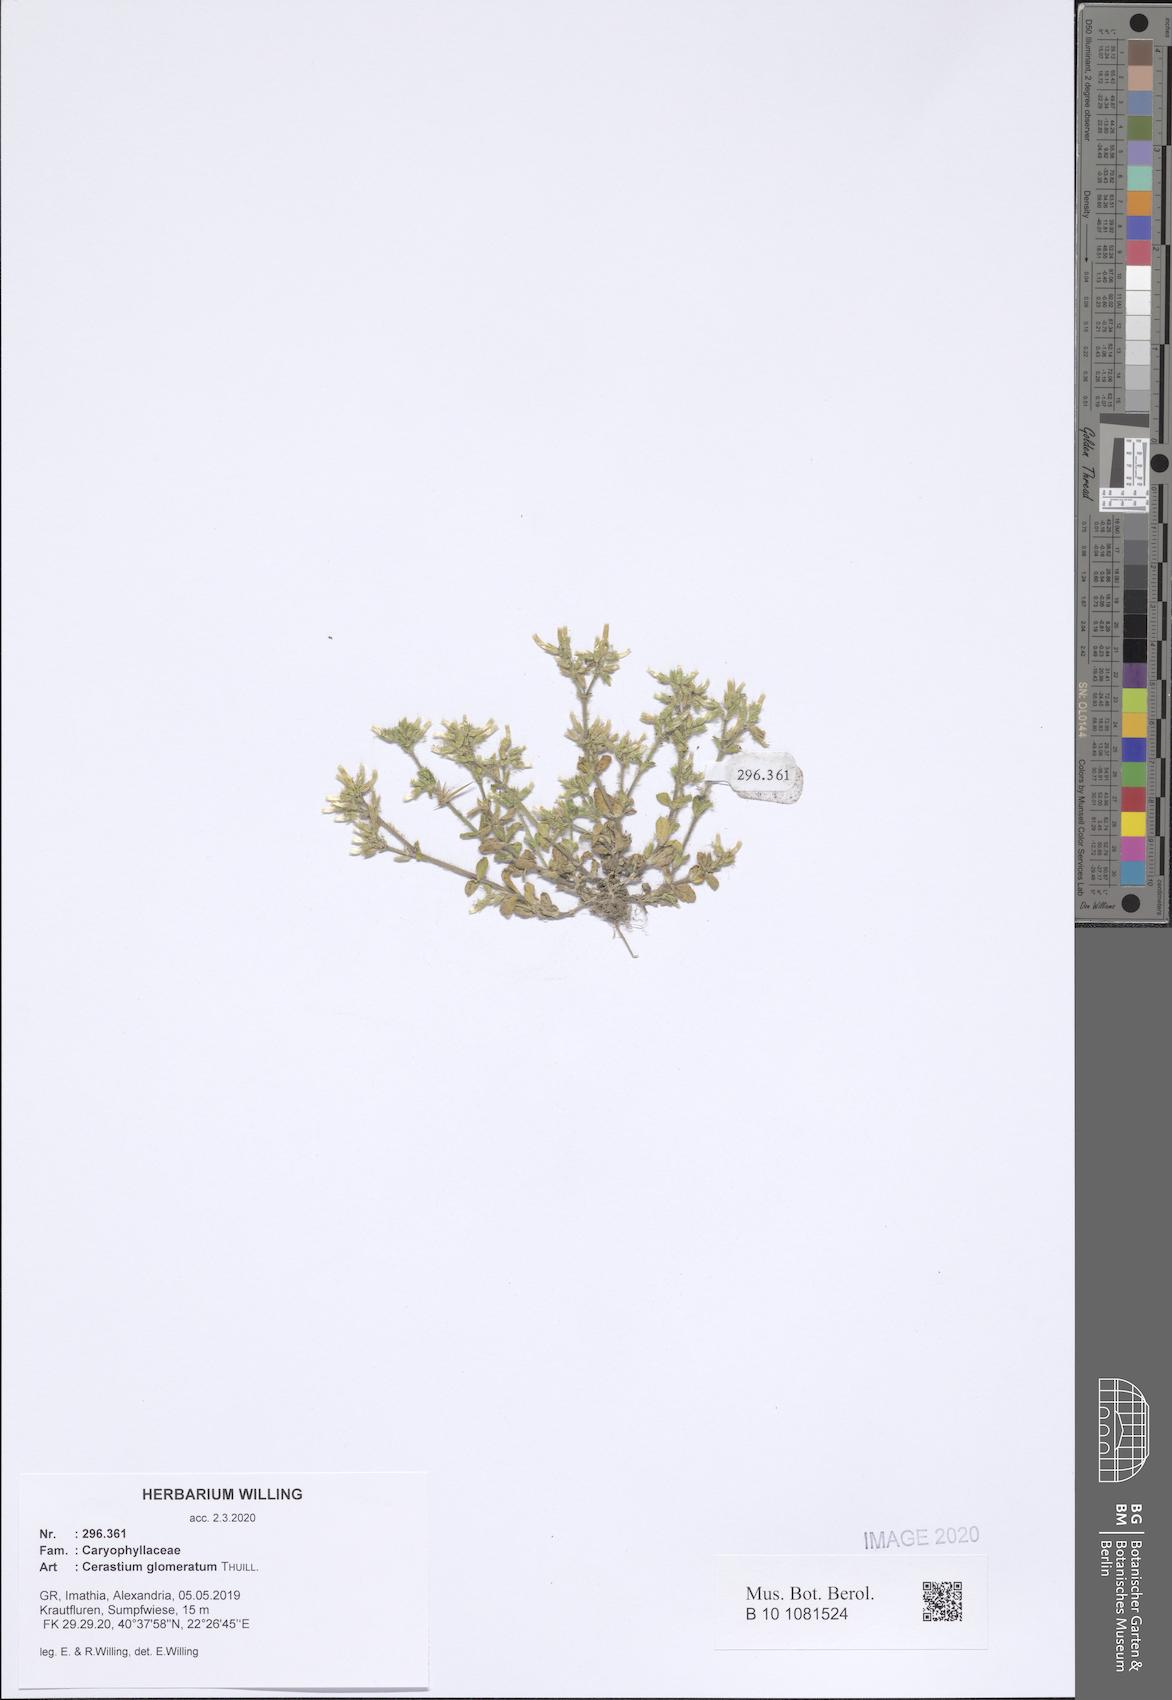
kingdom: Plantae
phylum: Tracheophyta
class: Magnoliopsida
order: Caryophyllales
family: Caryophyllaceae
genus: Cerastium
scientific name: Cerastium glomeratum
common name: Sticky chickweed
